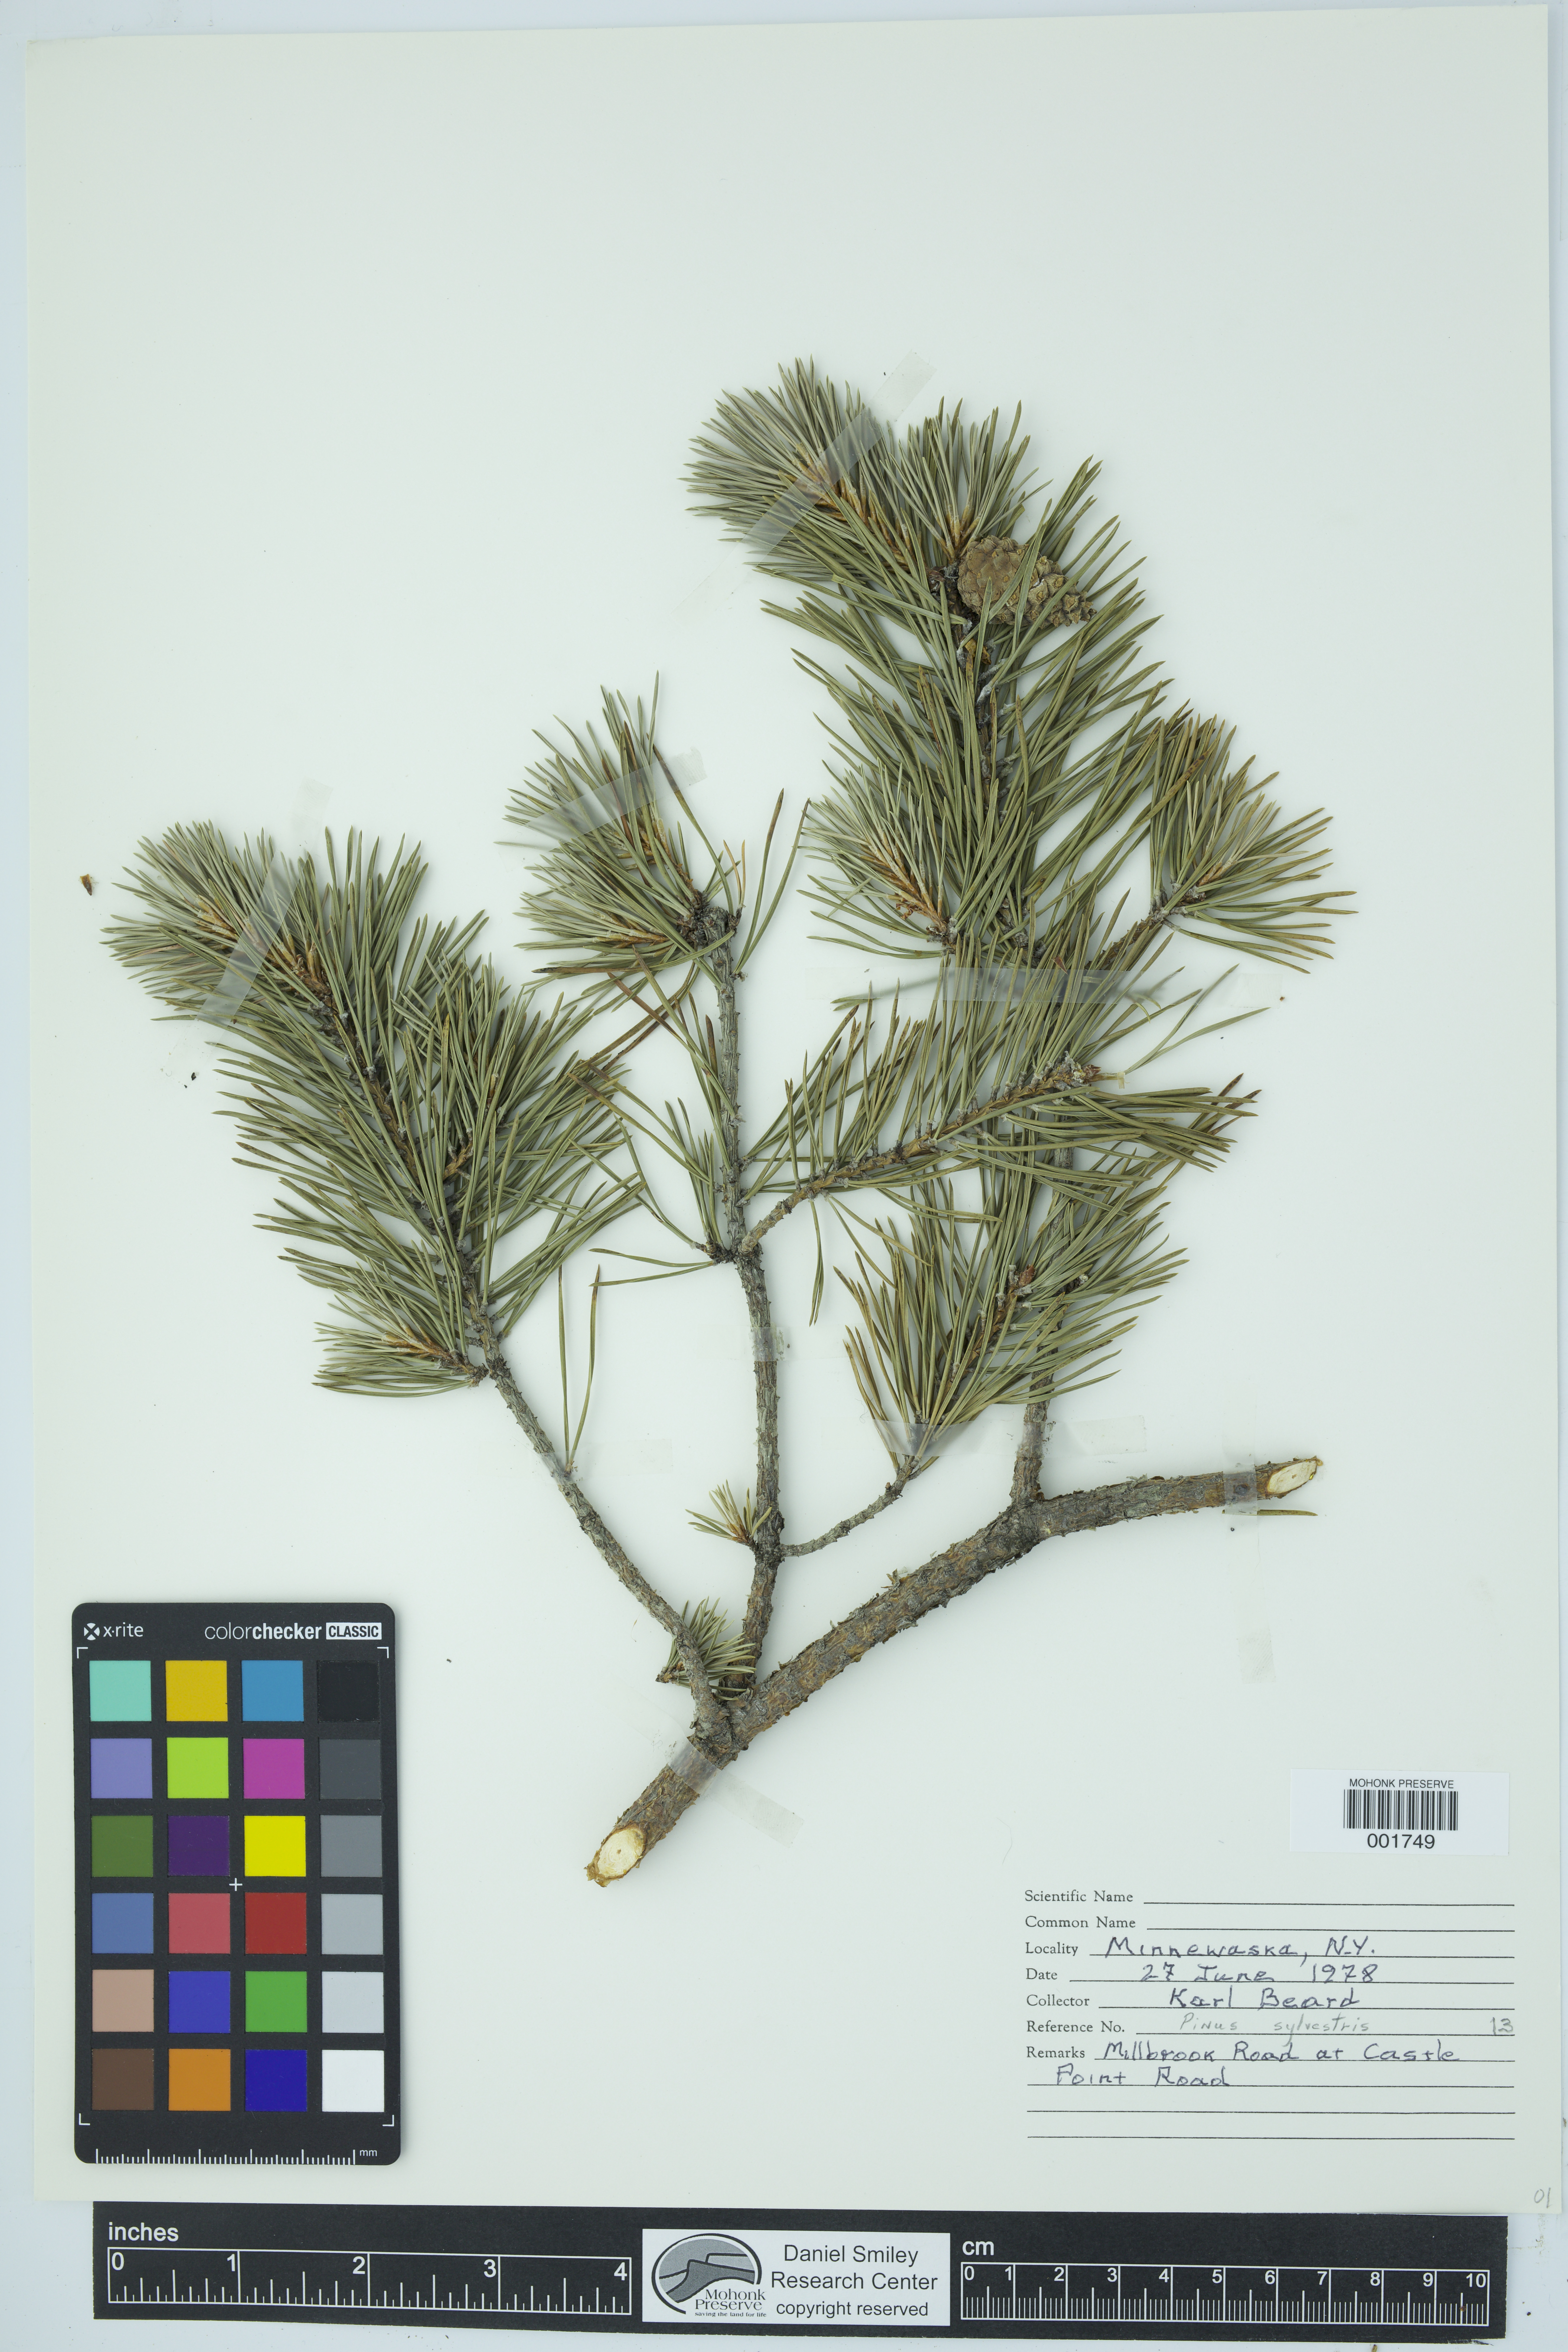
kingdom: Plantae
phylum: Tracheophyta
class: Pinopsida
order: Pinales
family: Pinaceae
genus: Pinus
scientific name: Pinus sylvestris
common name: Scots pine
